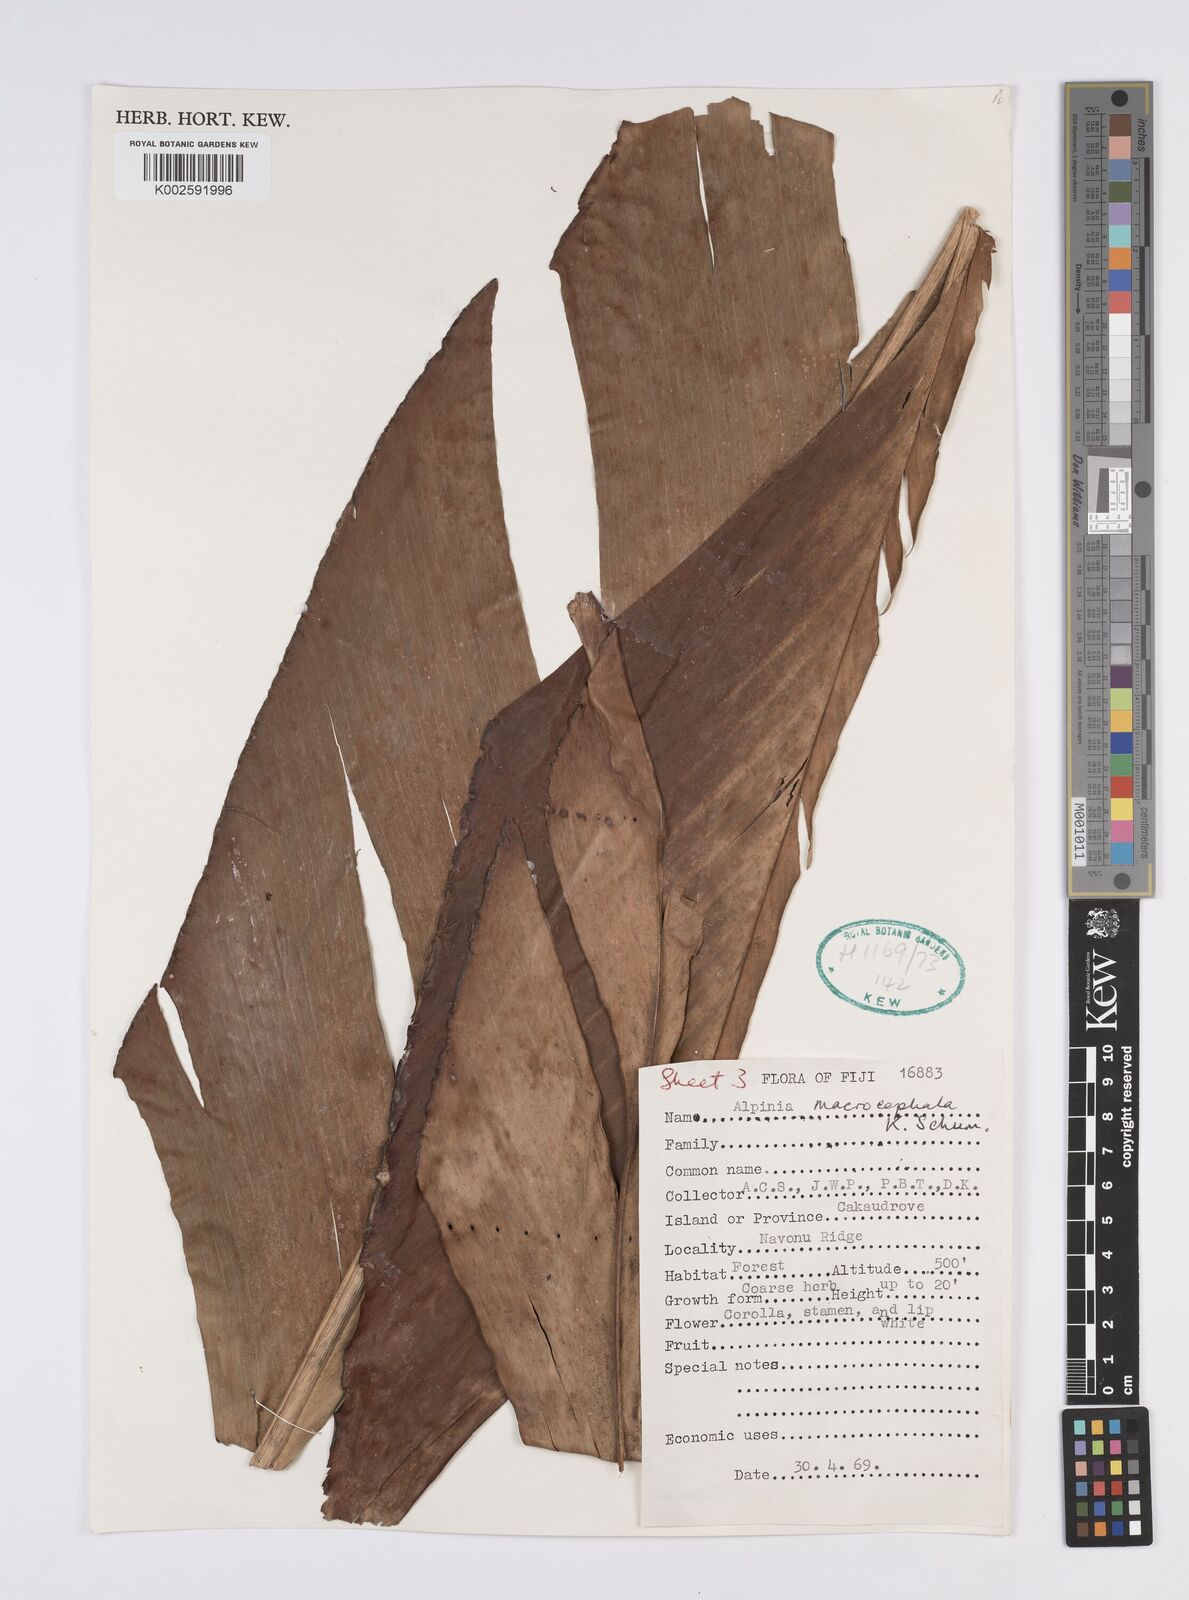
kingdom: Plantae
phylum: Tracheophyta
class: Liliopsida
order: Zingiberales
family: Zingiberaceae
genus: Alpinia
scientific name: Alpinia macrocephala
